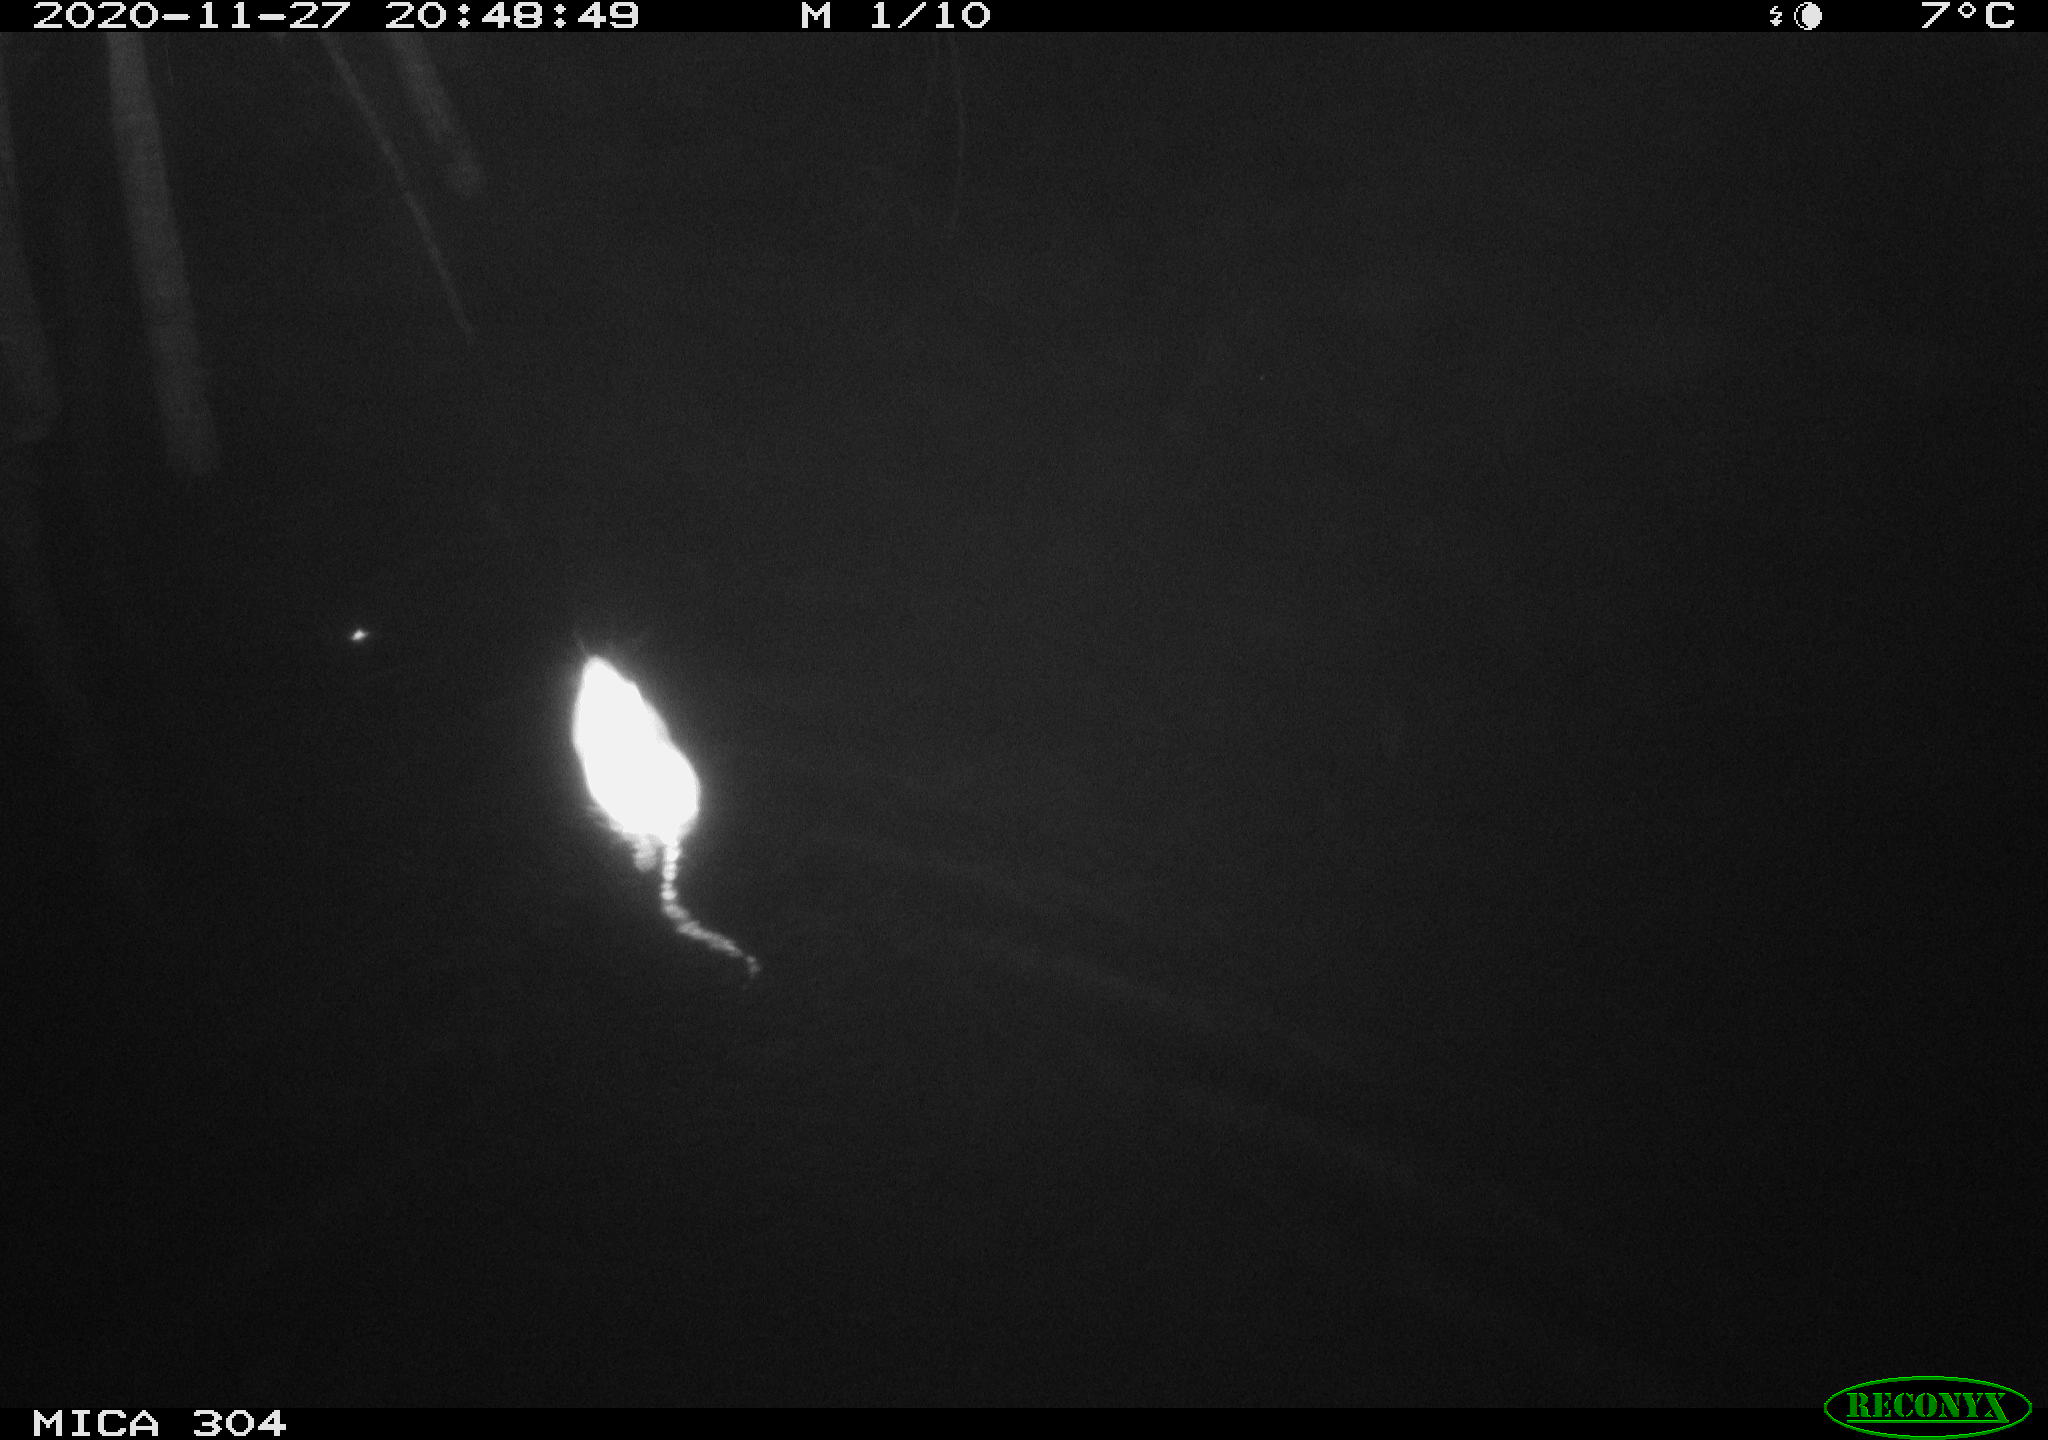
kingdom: Animalia
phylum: Chordata
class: Mammalia
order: Rodentia
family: Muridae
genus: Rattus
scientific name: Rattus norvegicus
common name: Brown rat
